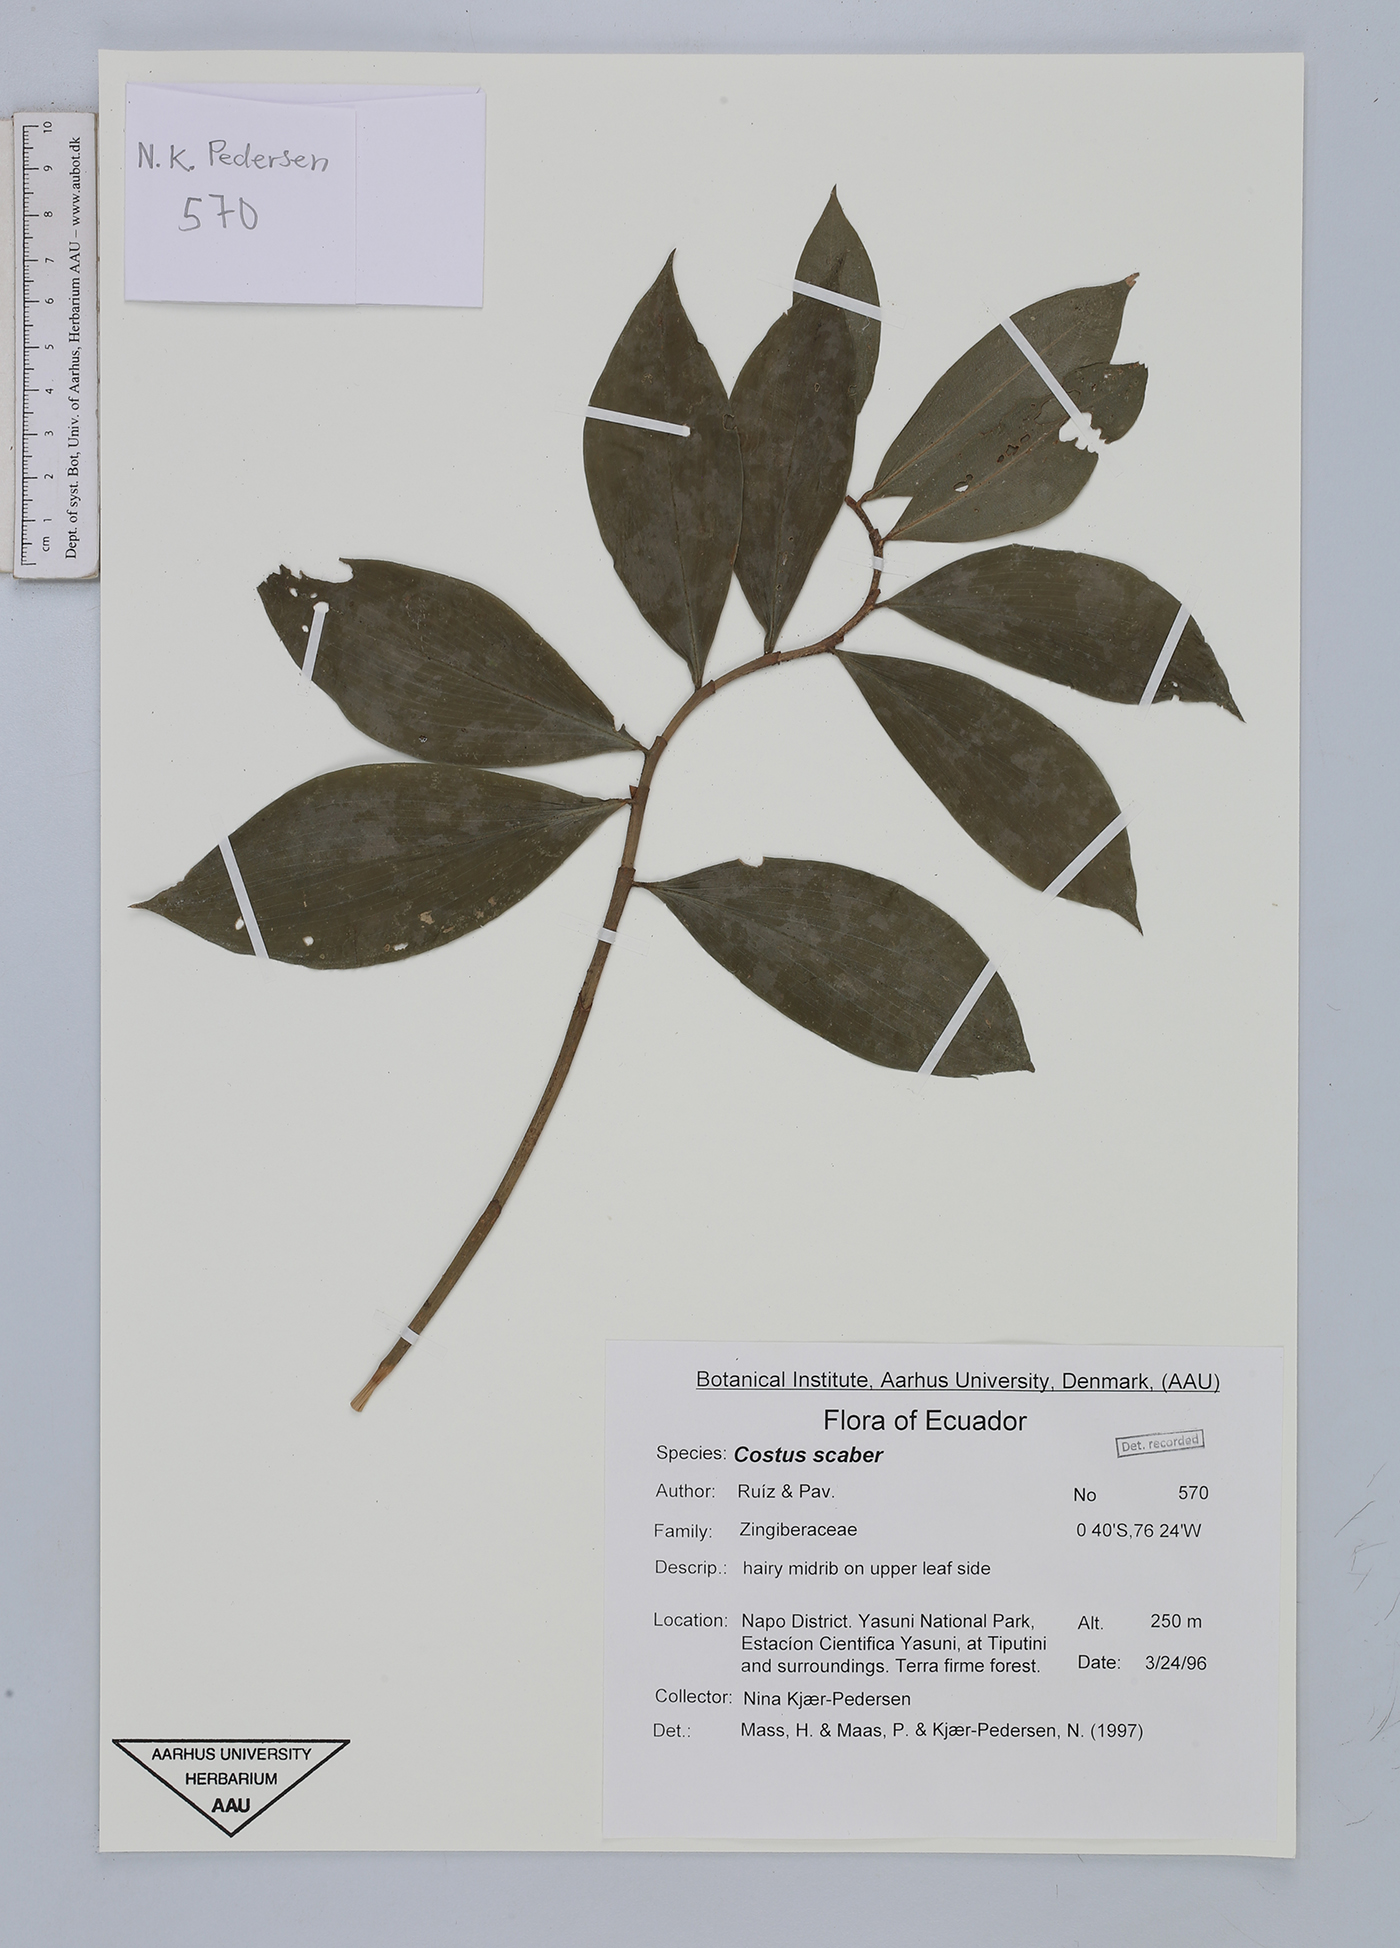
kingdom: Plantae
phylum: Tracheophyta
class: Liliopsida
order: Zingiberales
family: Costaceae
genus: Costus
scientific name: Costus scaber
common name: Spiral head ginger
